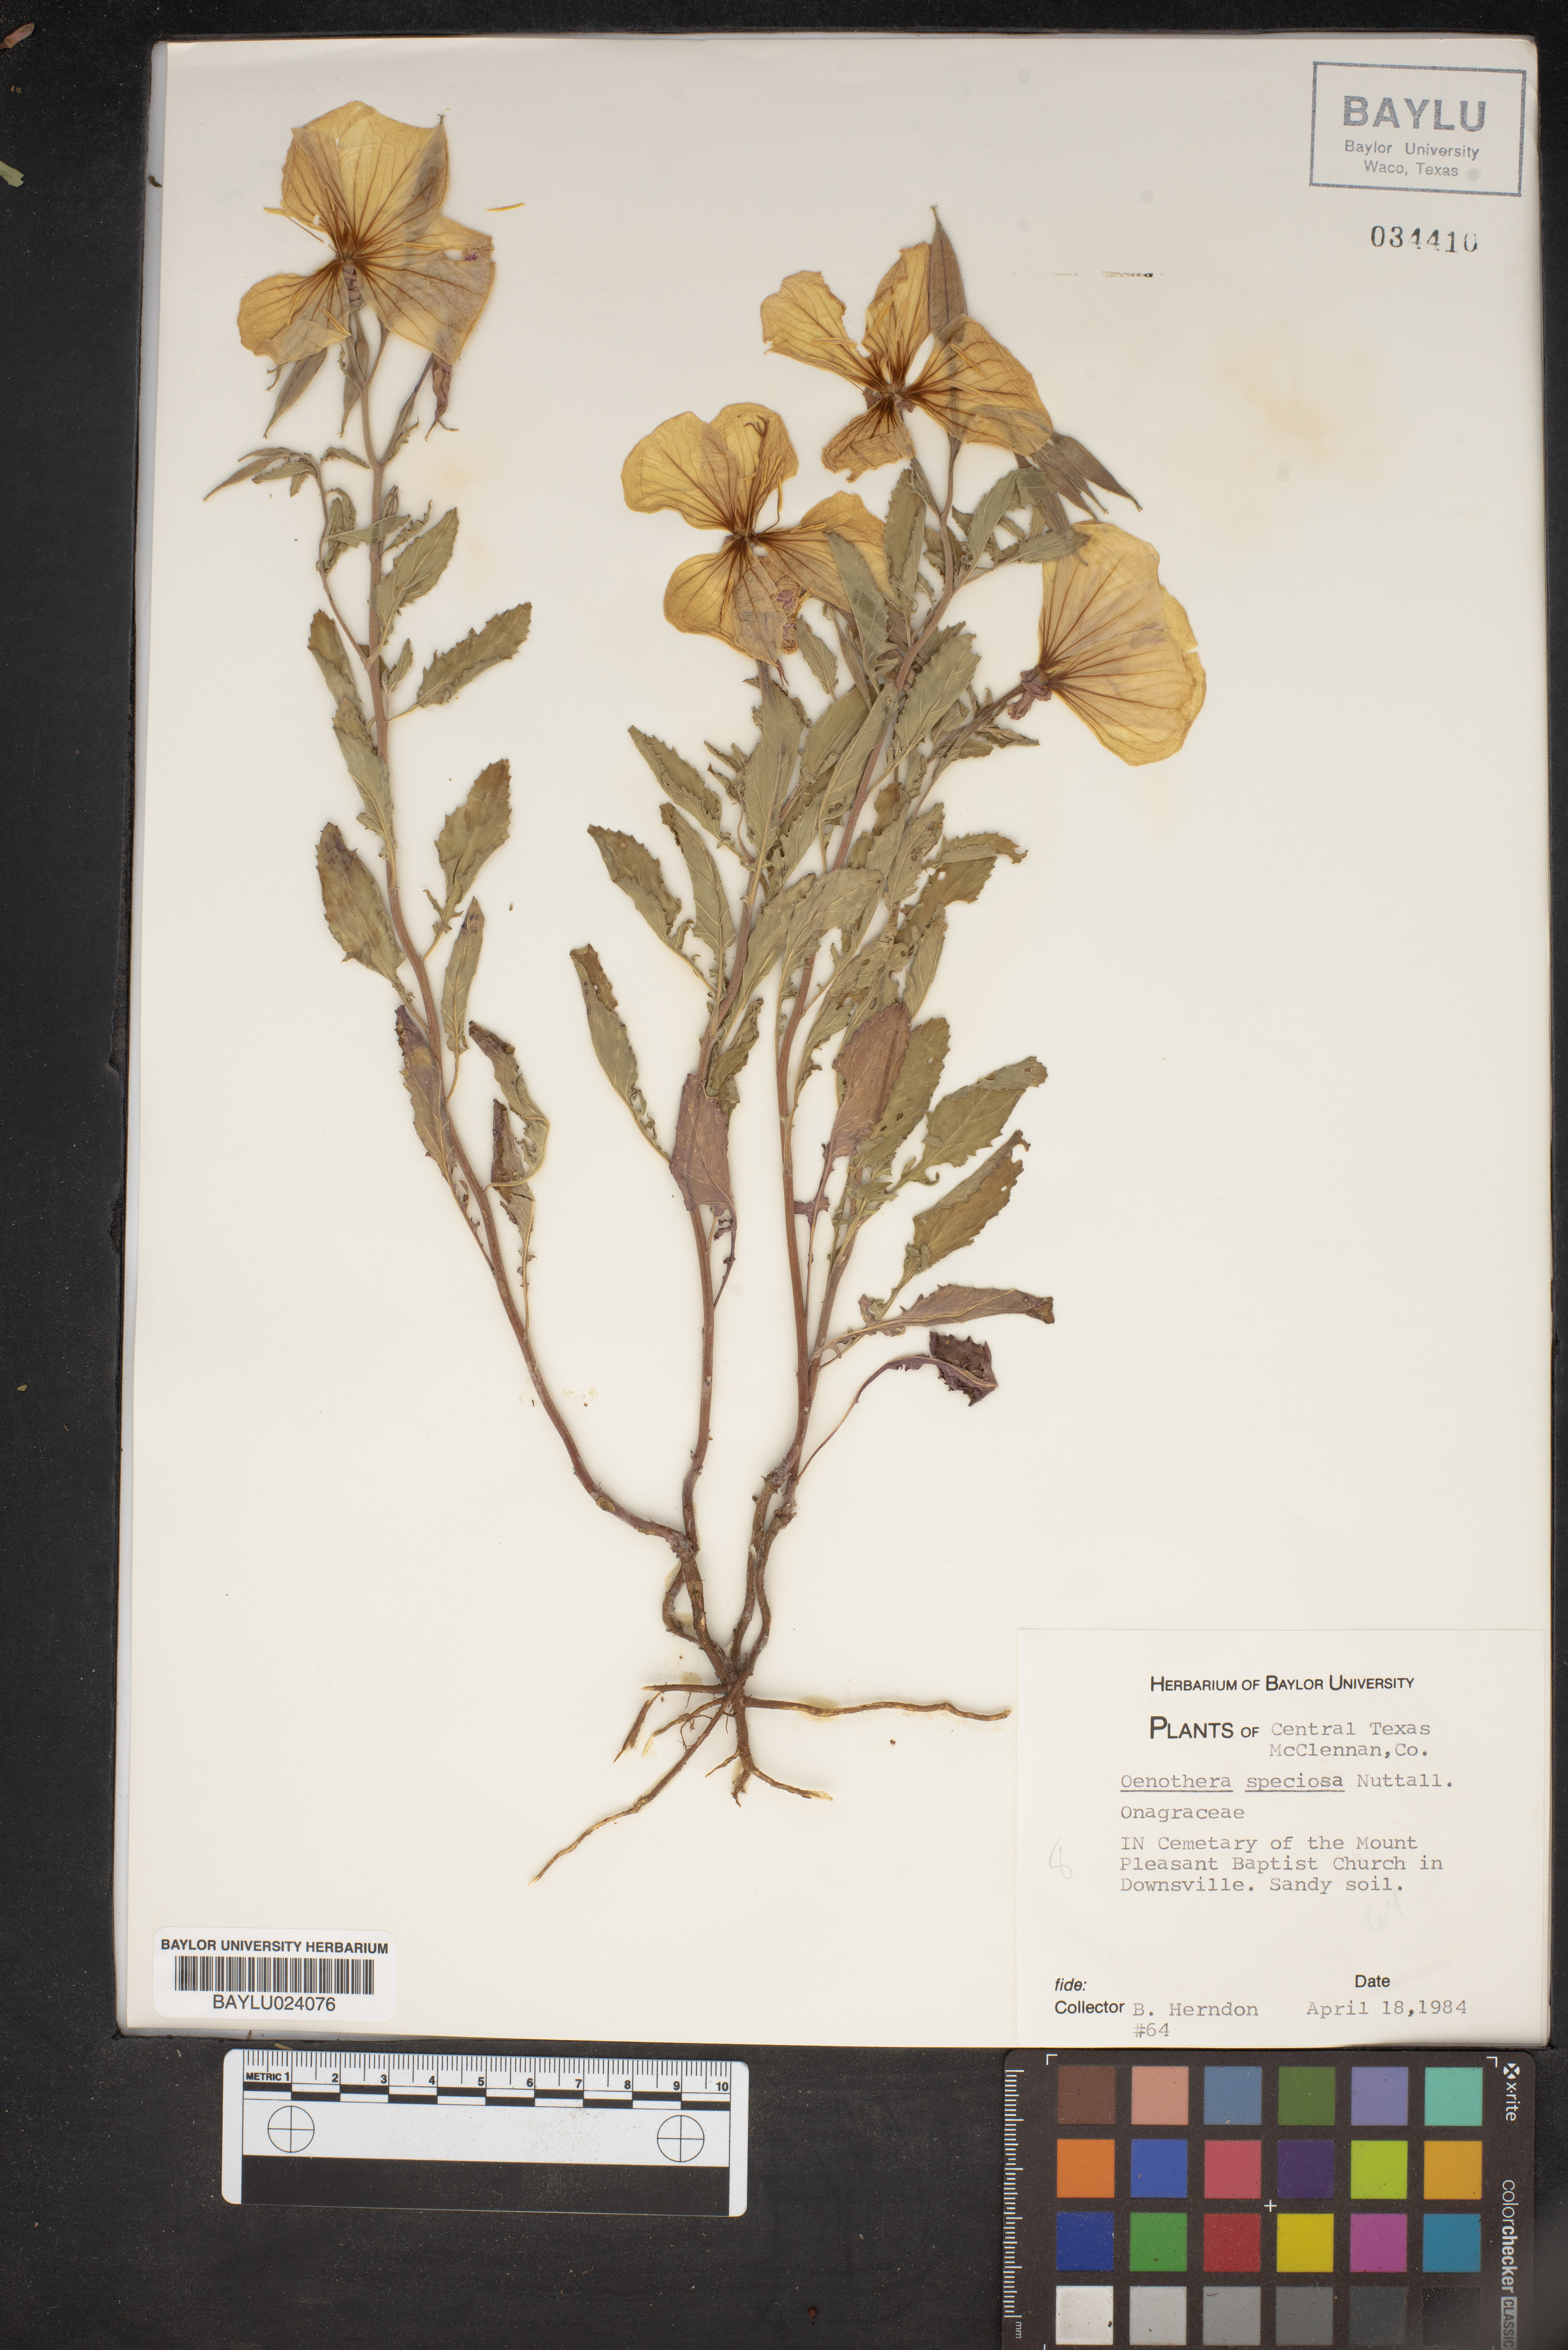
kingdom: Plantae
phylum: Tracheophyta
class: Magnoliopsida
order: Myrtales
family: Onagraceae
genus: Oenothera
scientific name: Oenothera speciosa
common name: White evening-primrose
